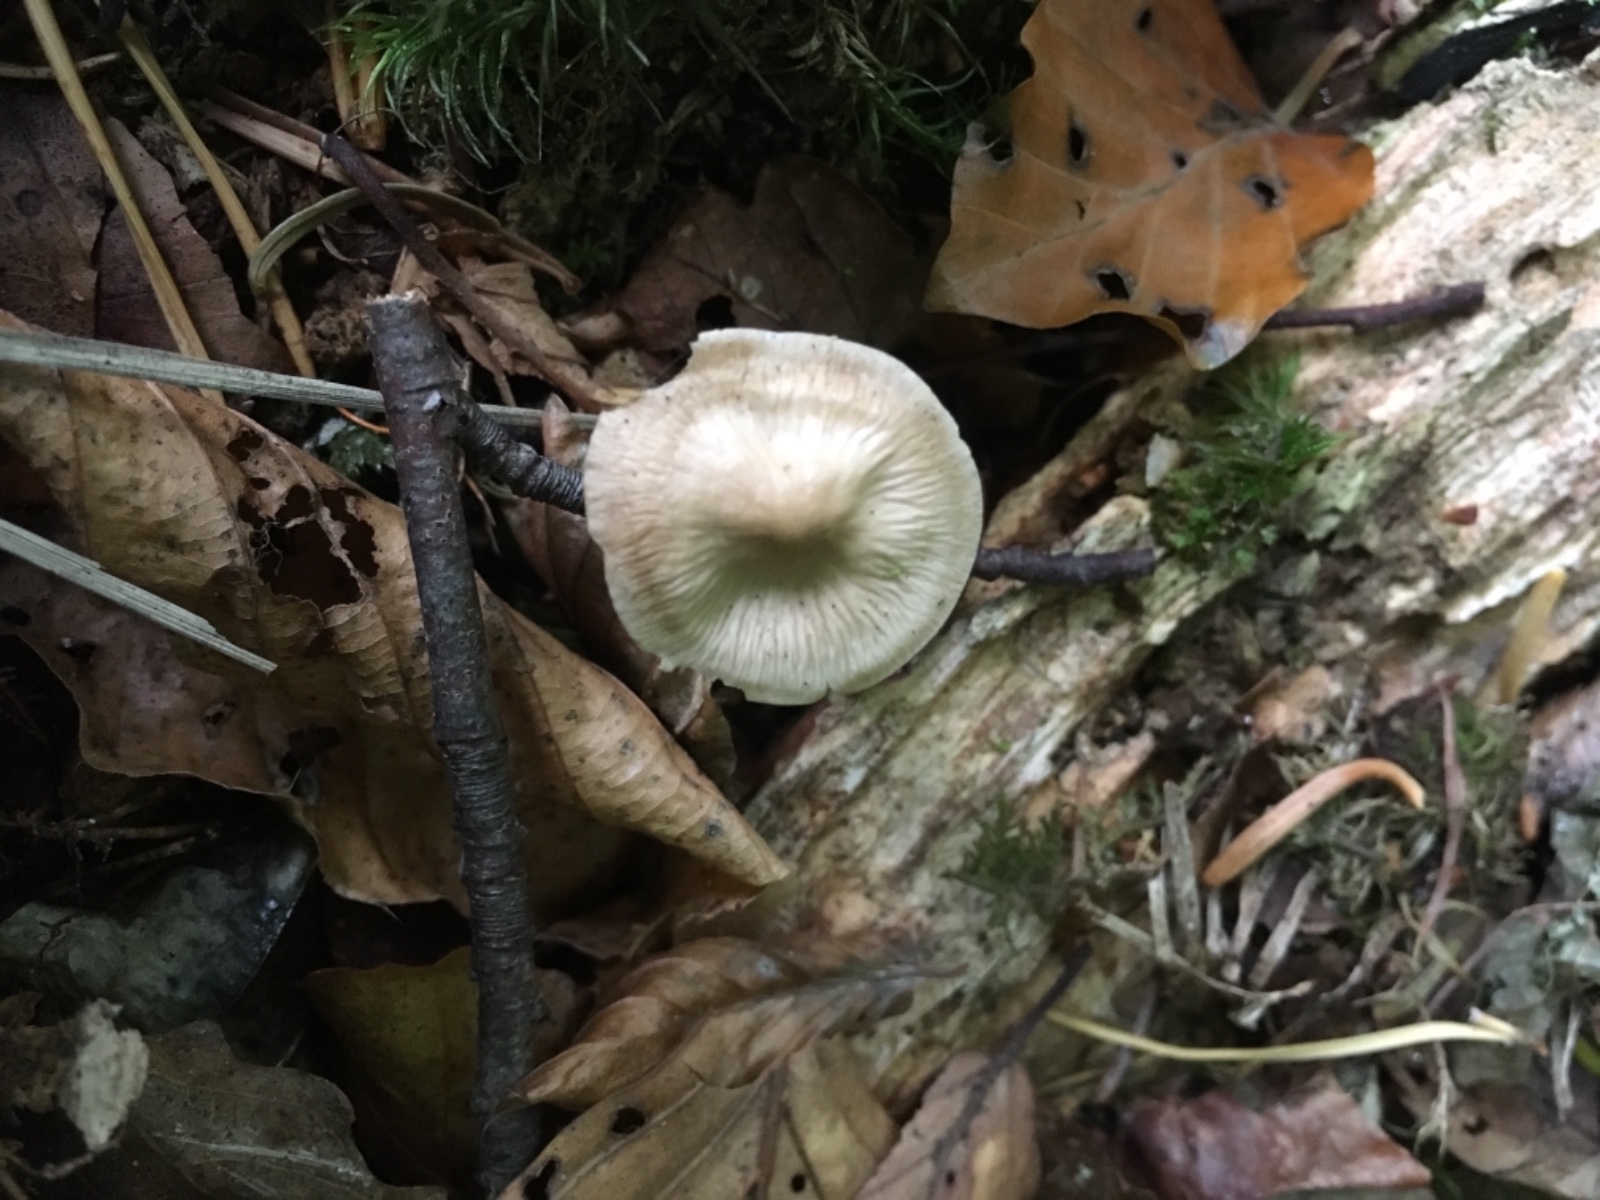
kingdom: Fungi
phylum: Basidiomycota
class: Agaricomycetes
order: Agaricales
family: Mycenaceae
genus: Mycena
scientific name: Mycena galericulata
